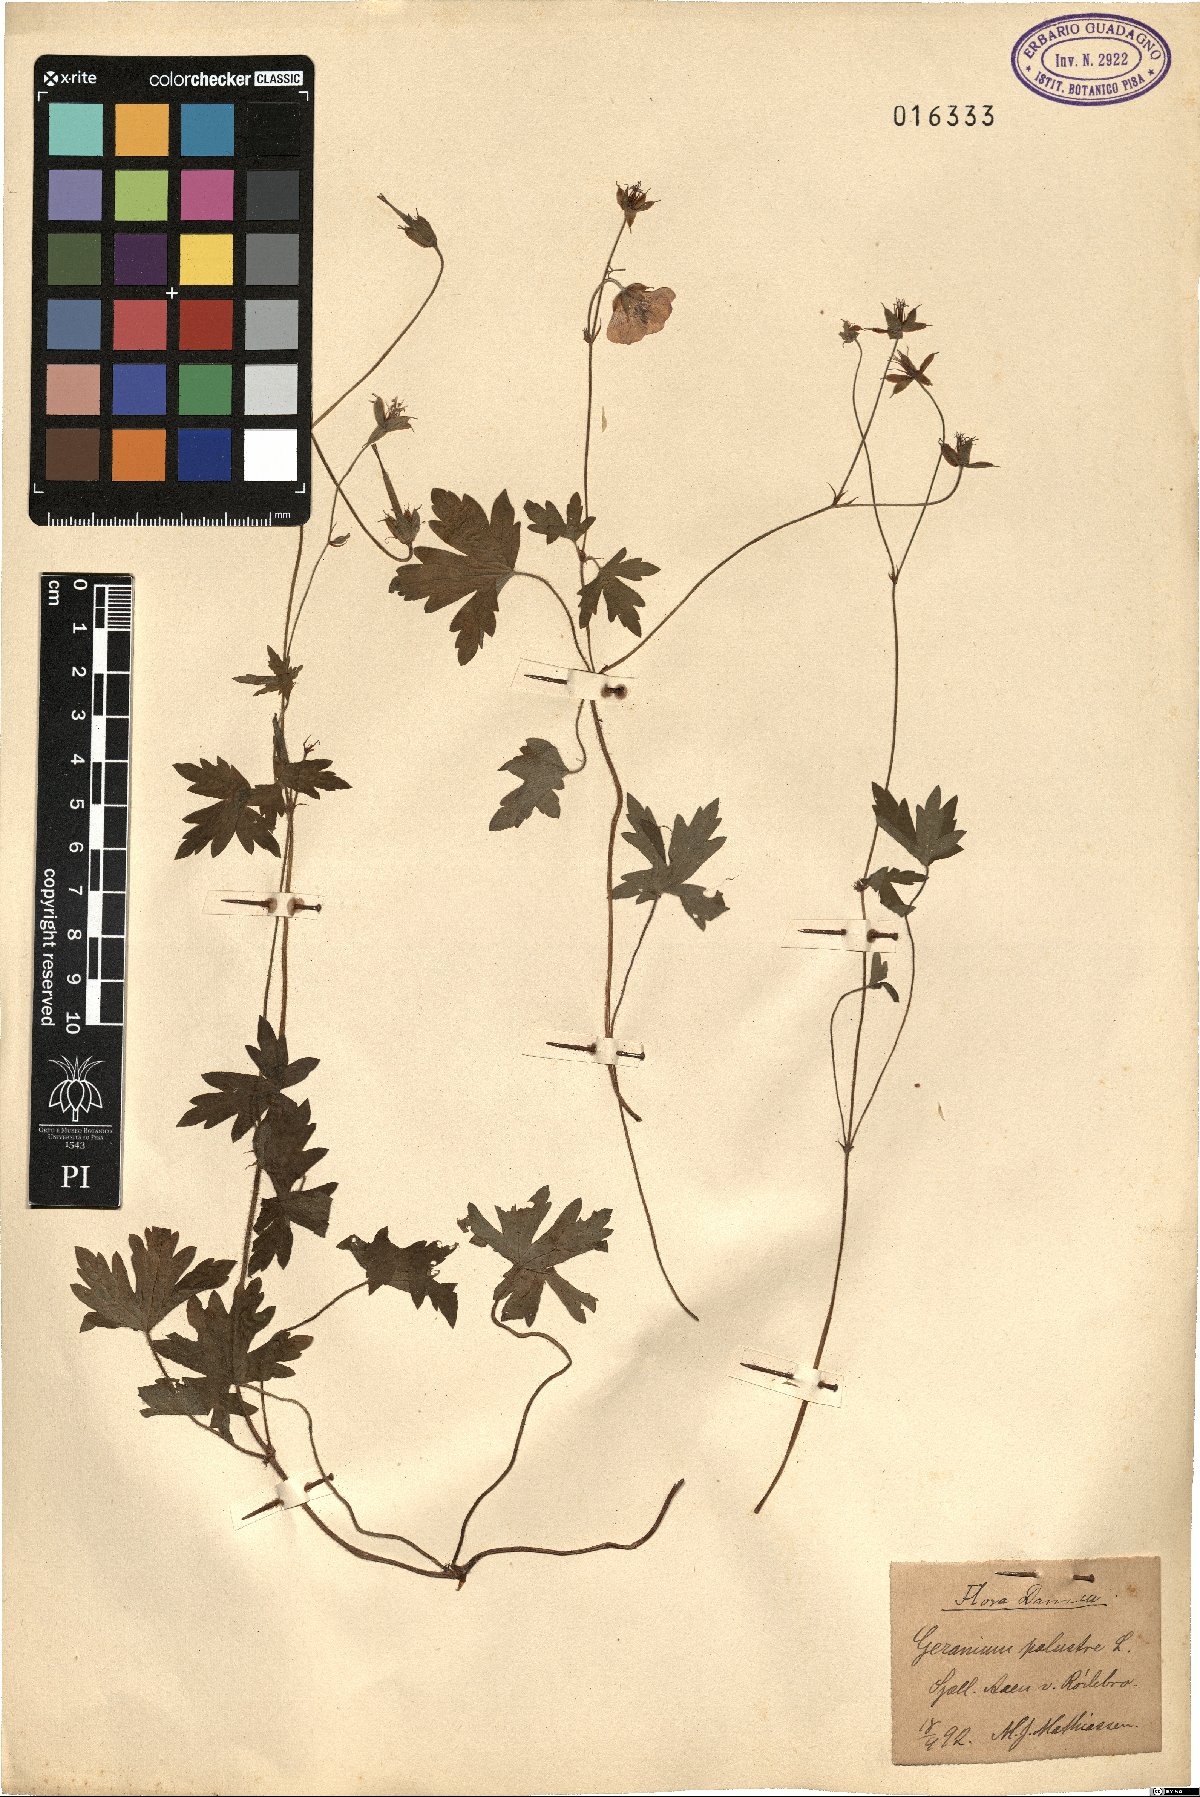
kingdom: Plantae
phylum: Tracheophyta
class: Magnoliopsida
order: Geraniales
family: Geraniaceae
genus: Geranium
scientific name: Geranium palustre
